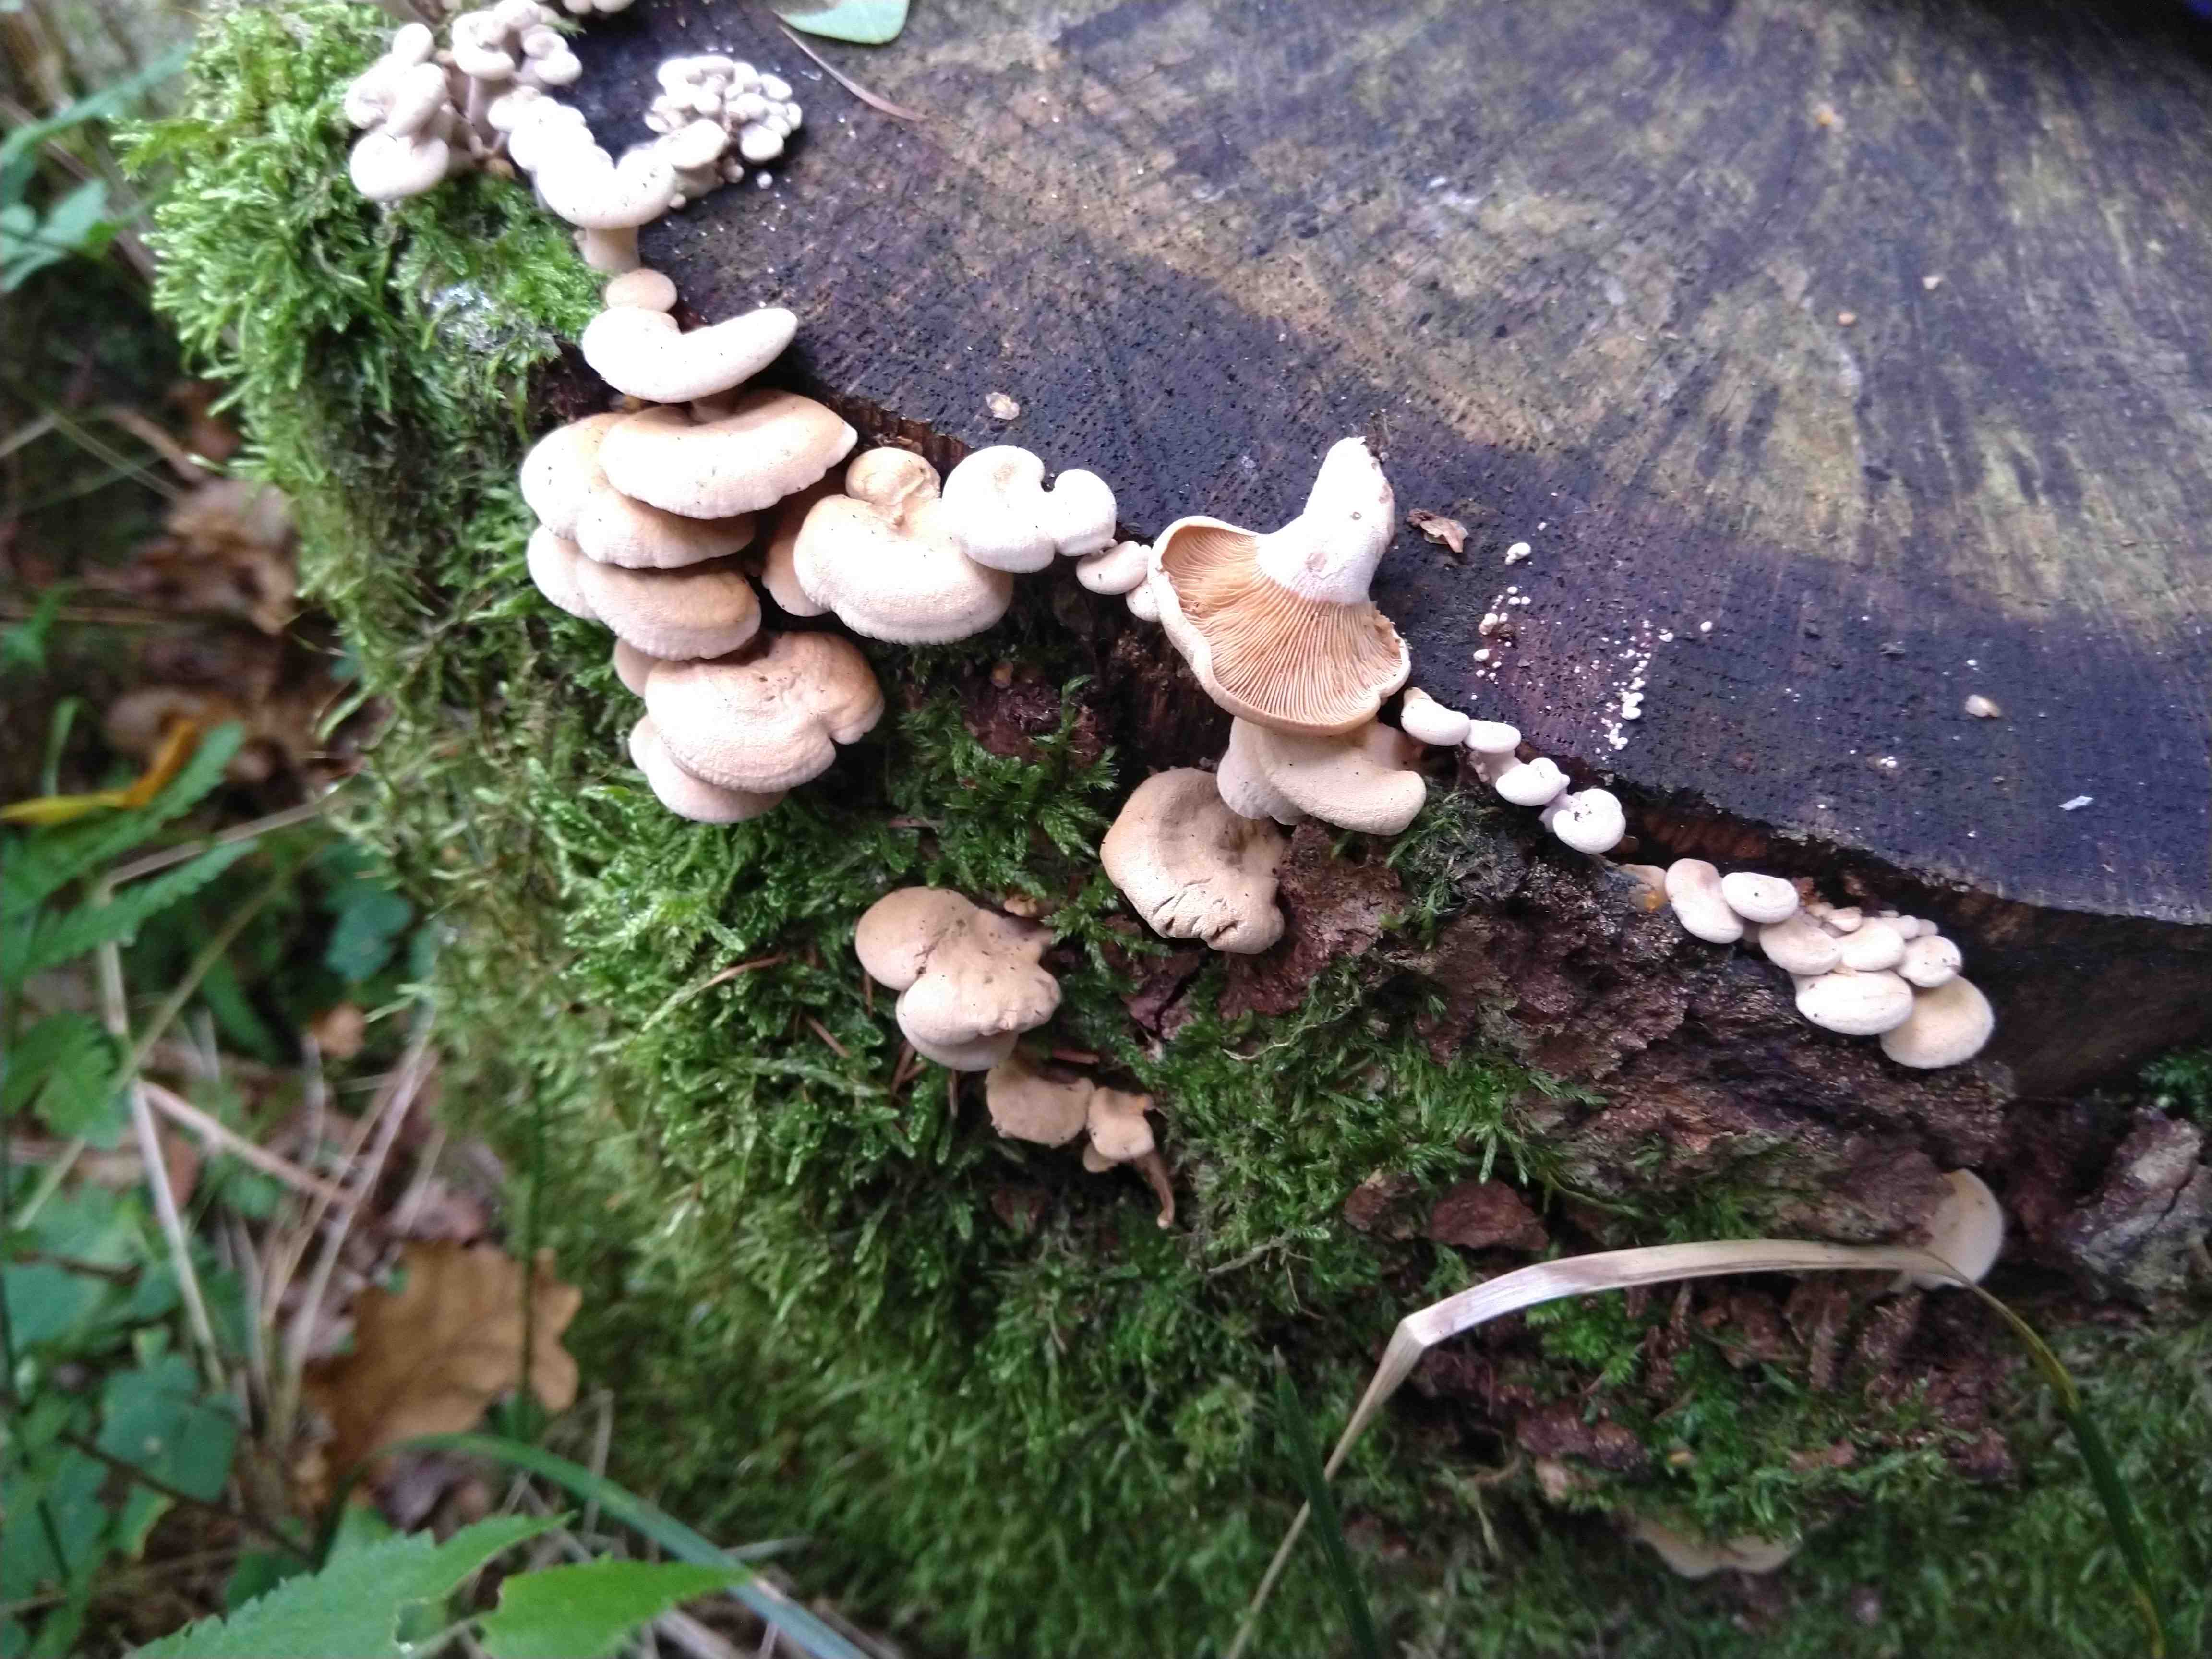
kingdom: Fungi
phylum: Basidiomycota
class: Agaricomycetes
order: Agaricales
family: Mycenaceae
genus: Panellus
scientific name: Panellus stipticus
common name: kliddet epaulethat
